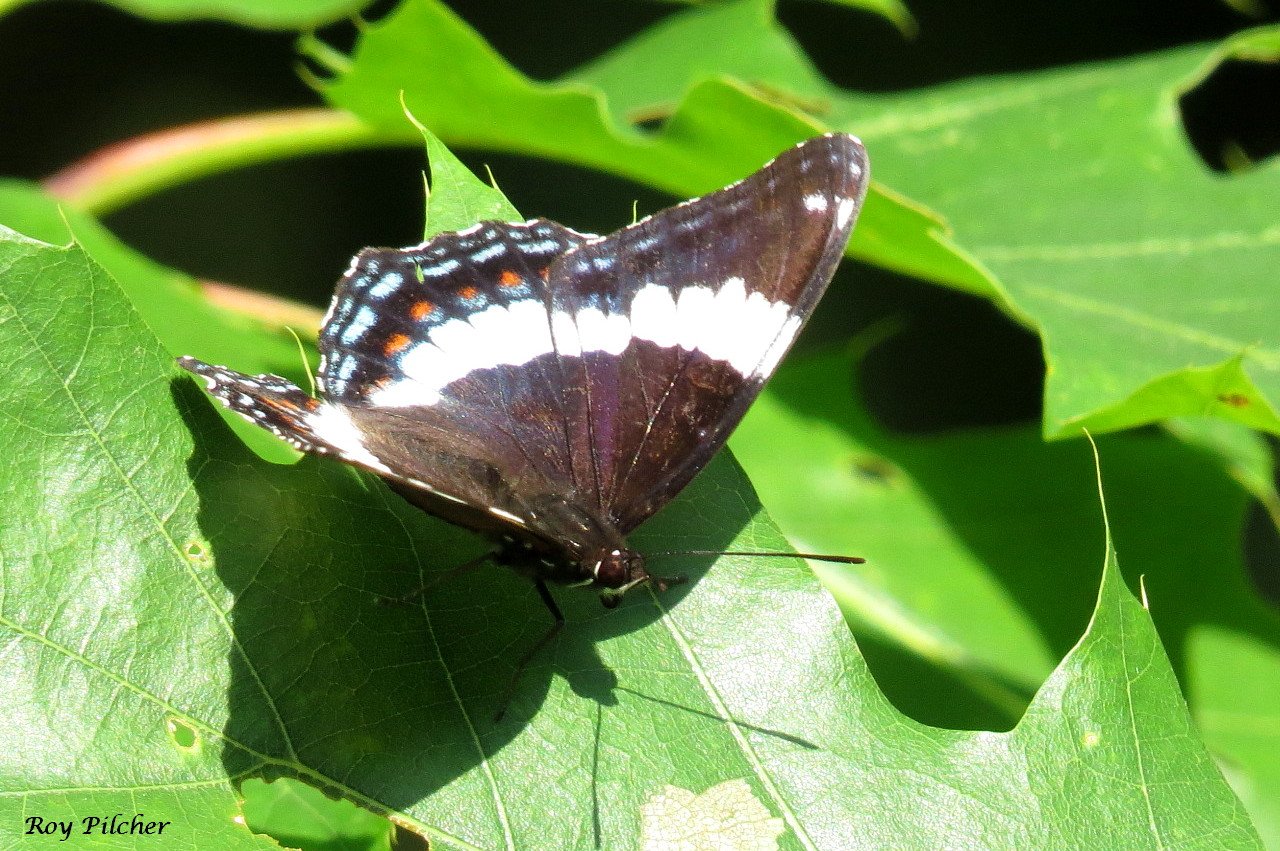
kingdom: Animalia
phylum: Arthropoda
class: Insecta
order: Lepidoptera
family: Nymphalidae
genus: Limenitis
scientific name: Limenitis arthemis
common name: Red-spotted Admiral
